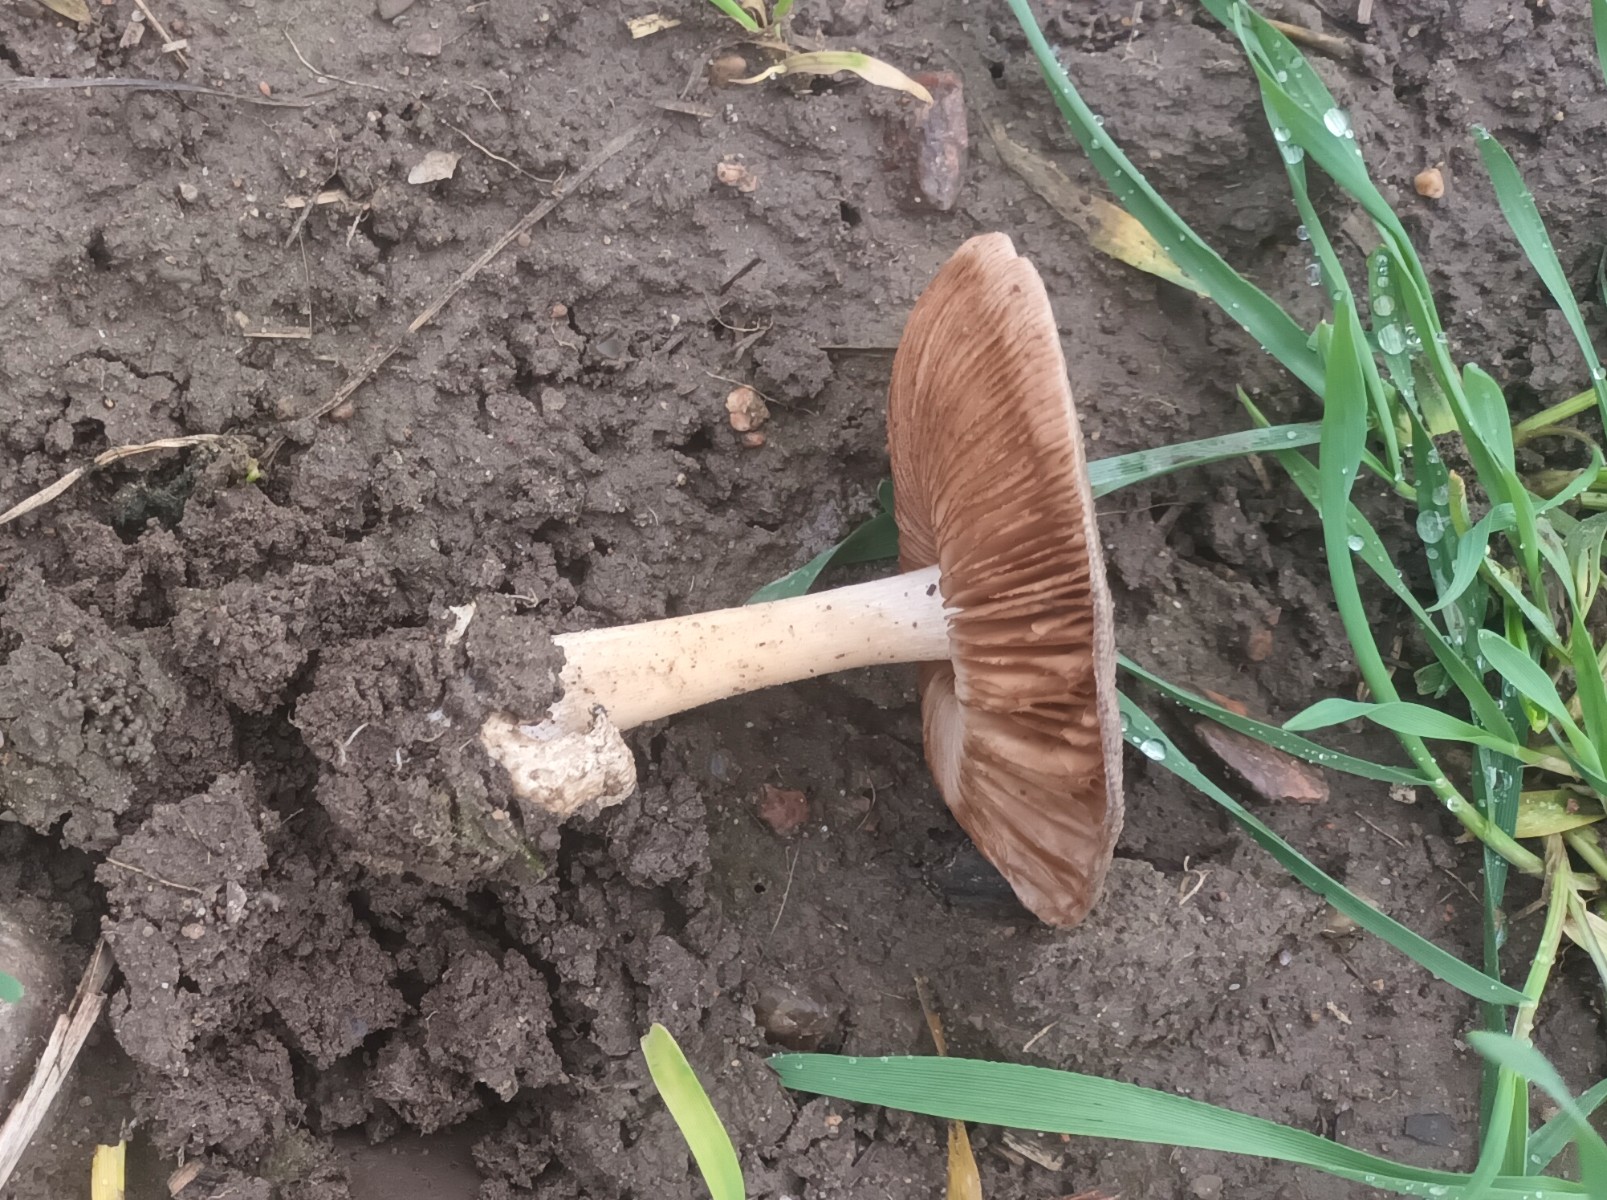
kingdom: Fungi
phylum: Basidiomycota
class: Agaricomycetes
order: Agaricales
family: Pluteaceae
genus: Volvopluteus
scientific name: Volvopluteus gloiocephalus
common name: høj posesvamp
